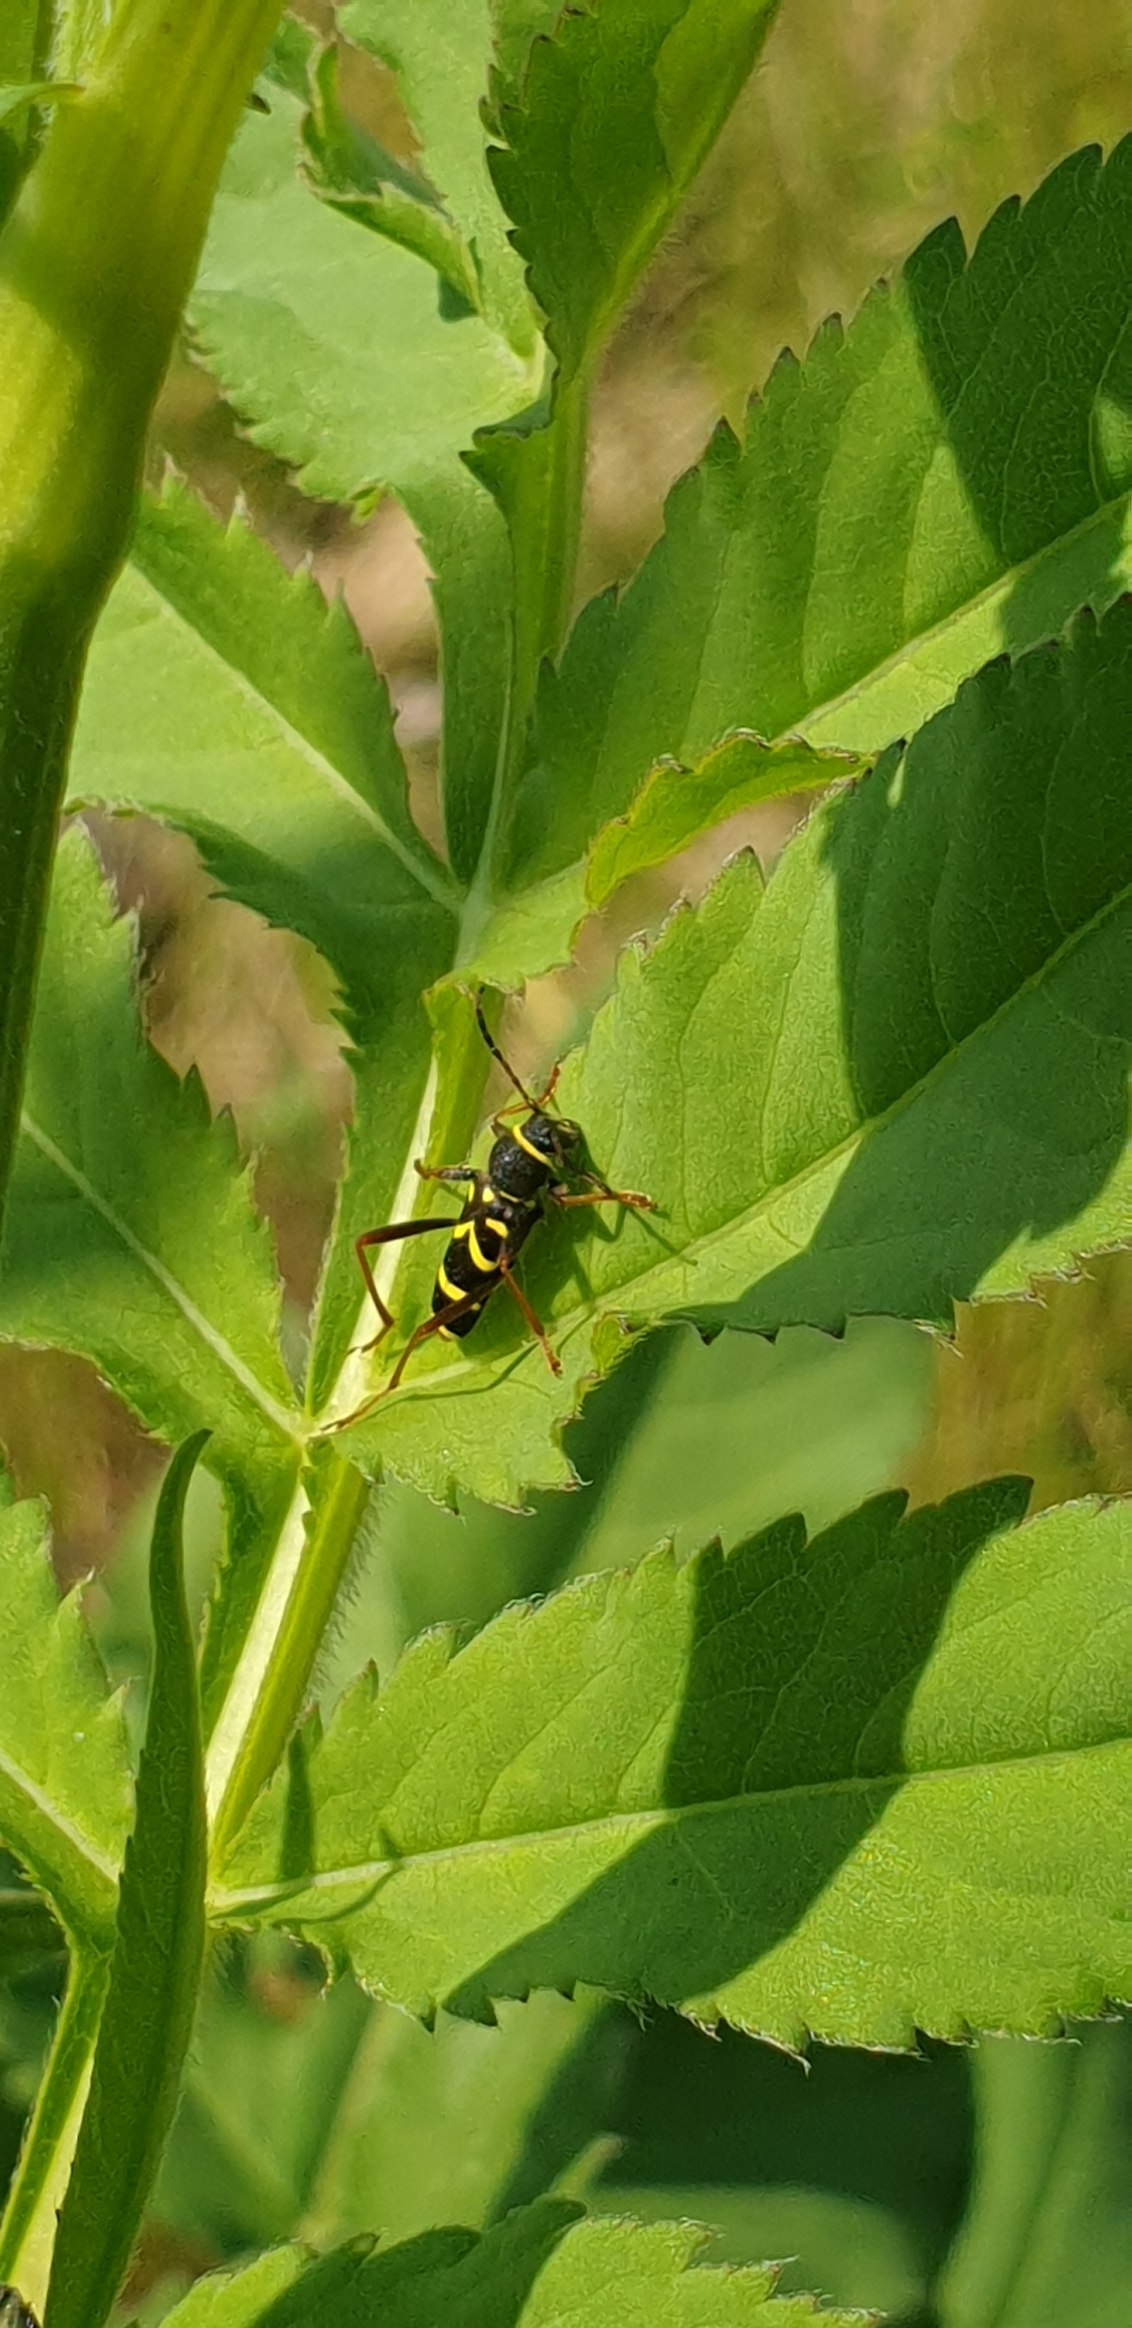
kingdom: Animalia
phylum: Arthropoda
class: Insecta
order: Coleoptera
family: Cerambycidae
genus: Clytus
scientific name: Clytus arietis
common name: Lille hvepsebuk
